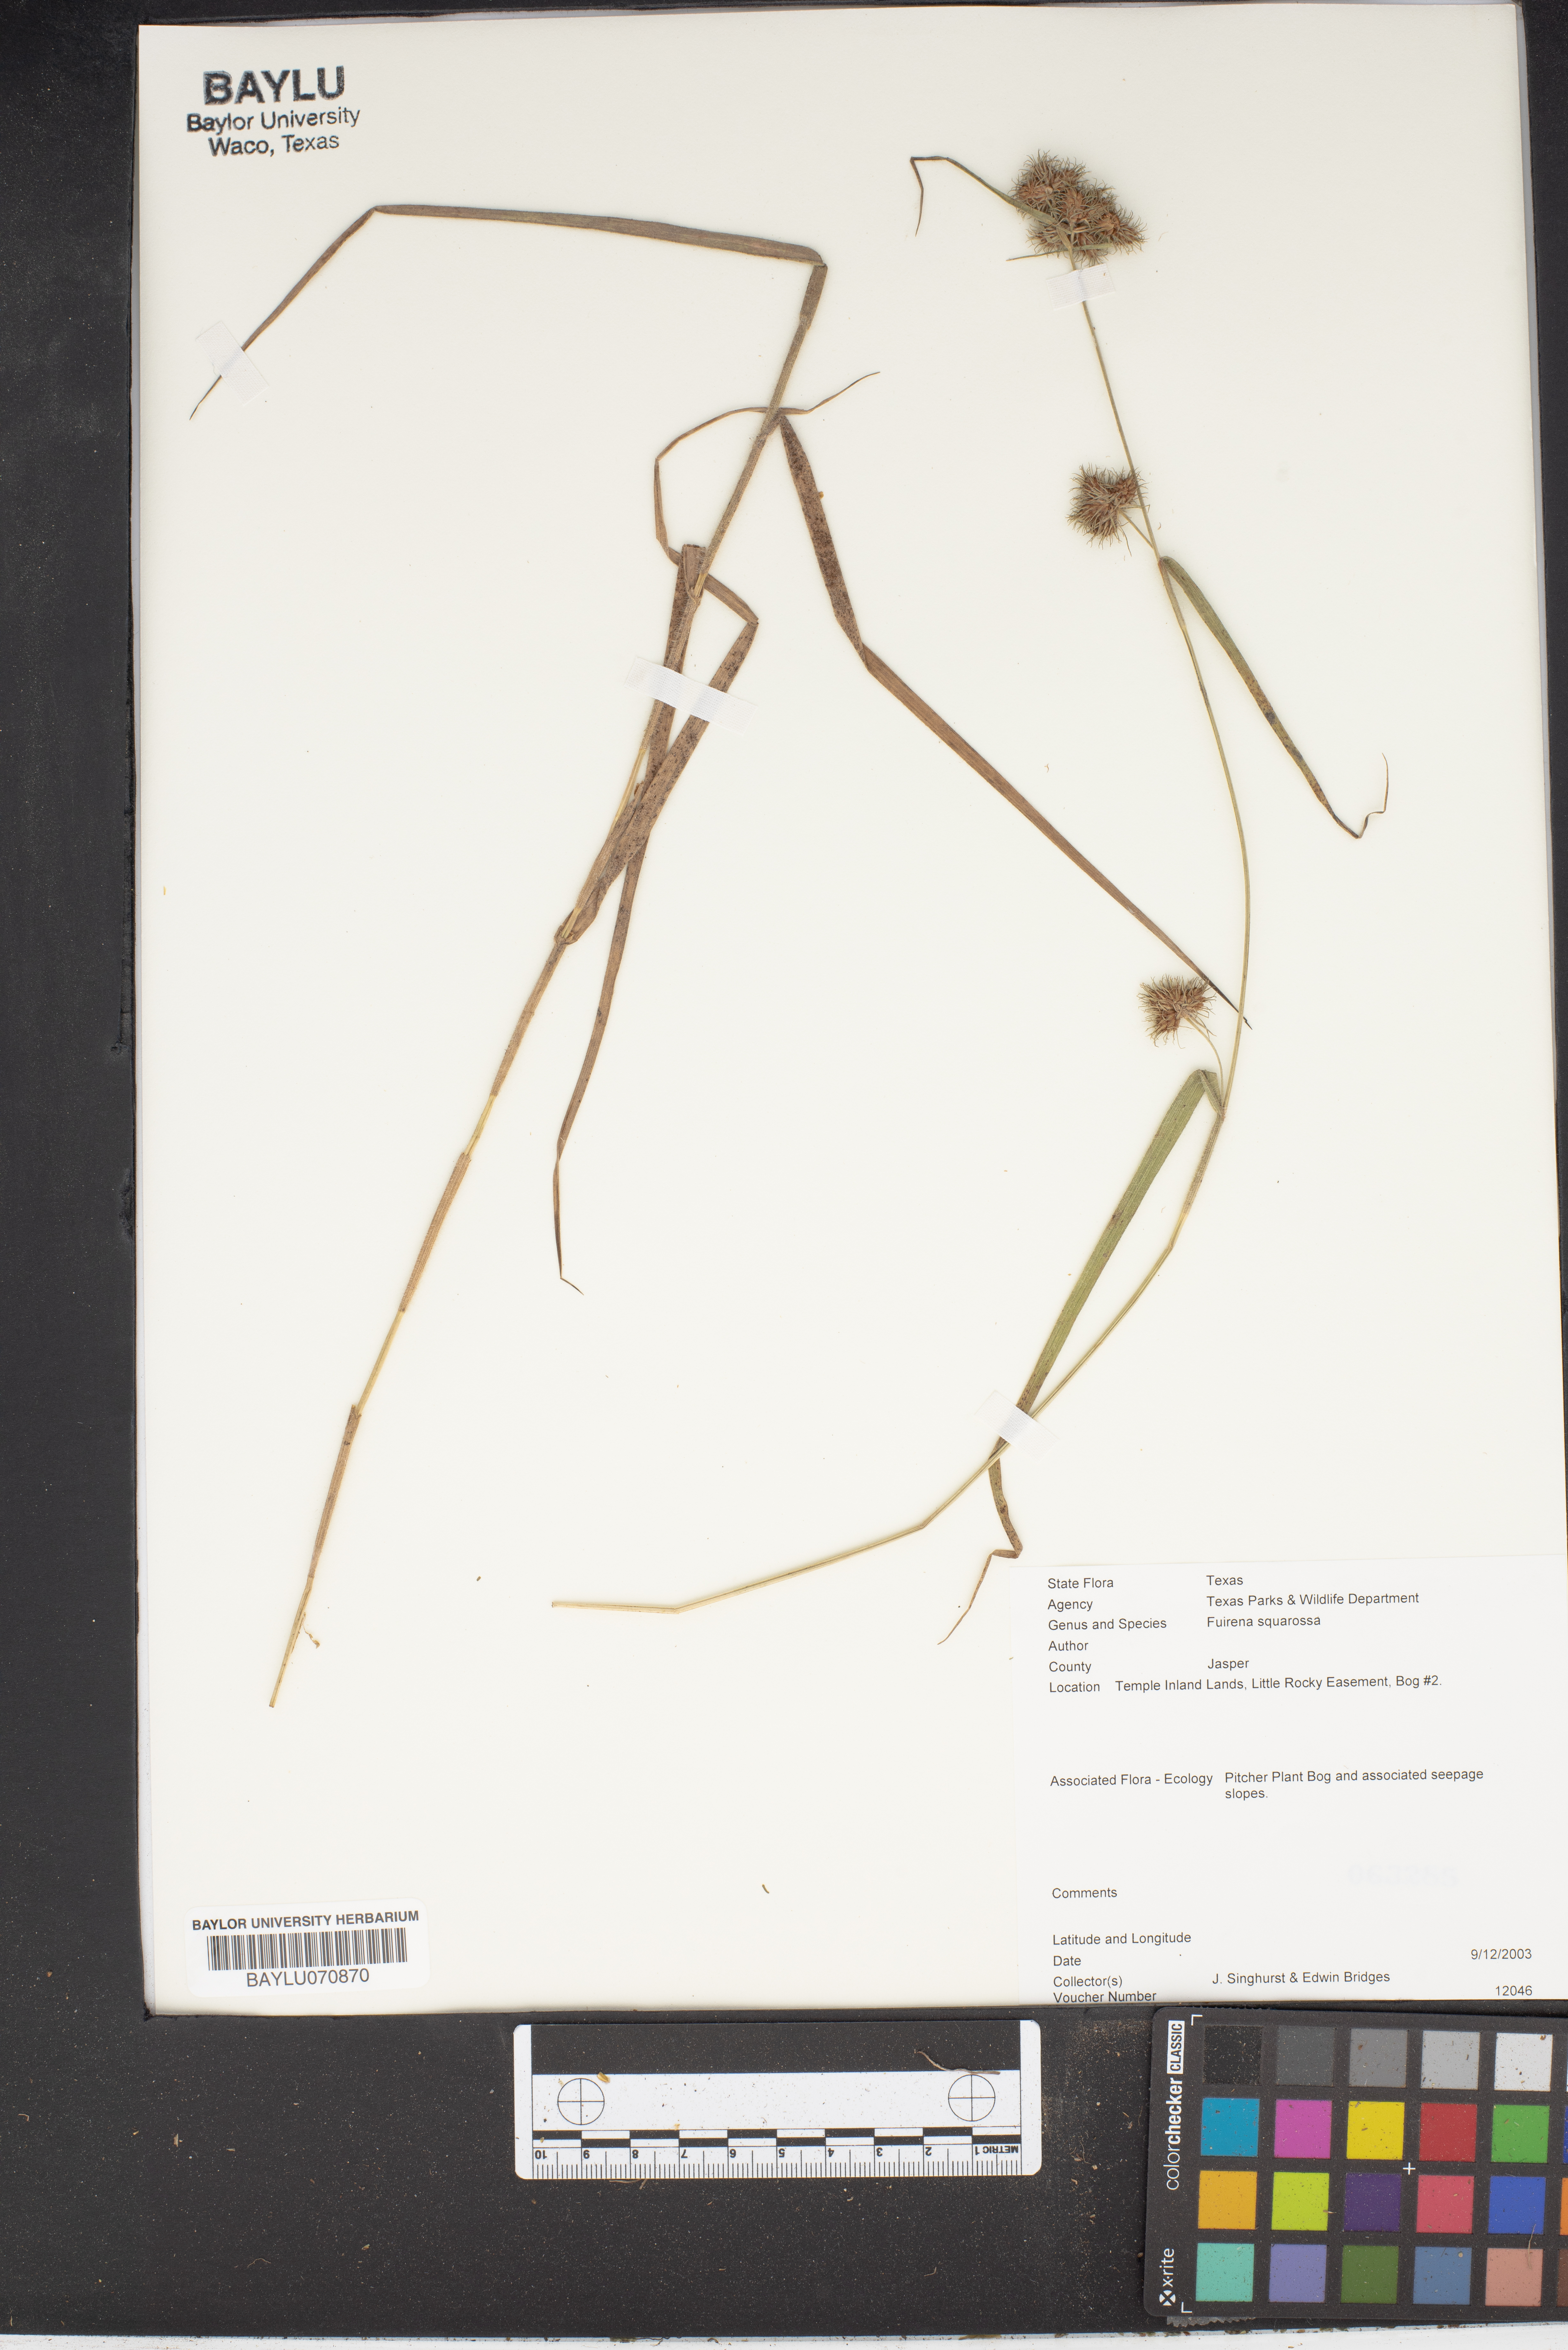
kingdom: Plantae
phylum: Tracheophyta
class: Liliopsida
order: Poales
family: Cyperaceae
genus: Fuirena
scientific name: Fuirena squarrosa
